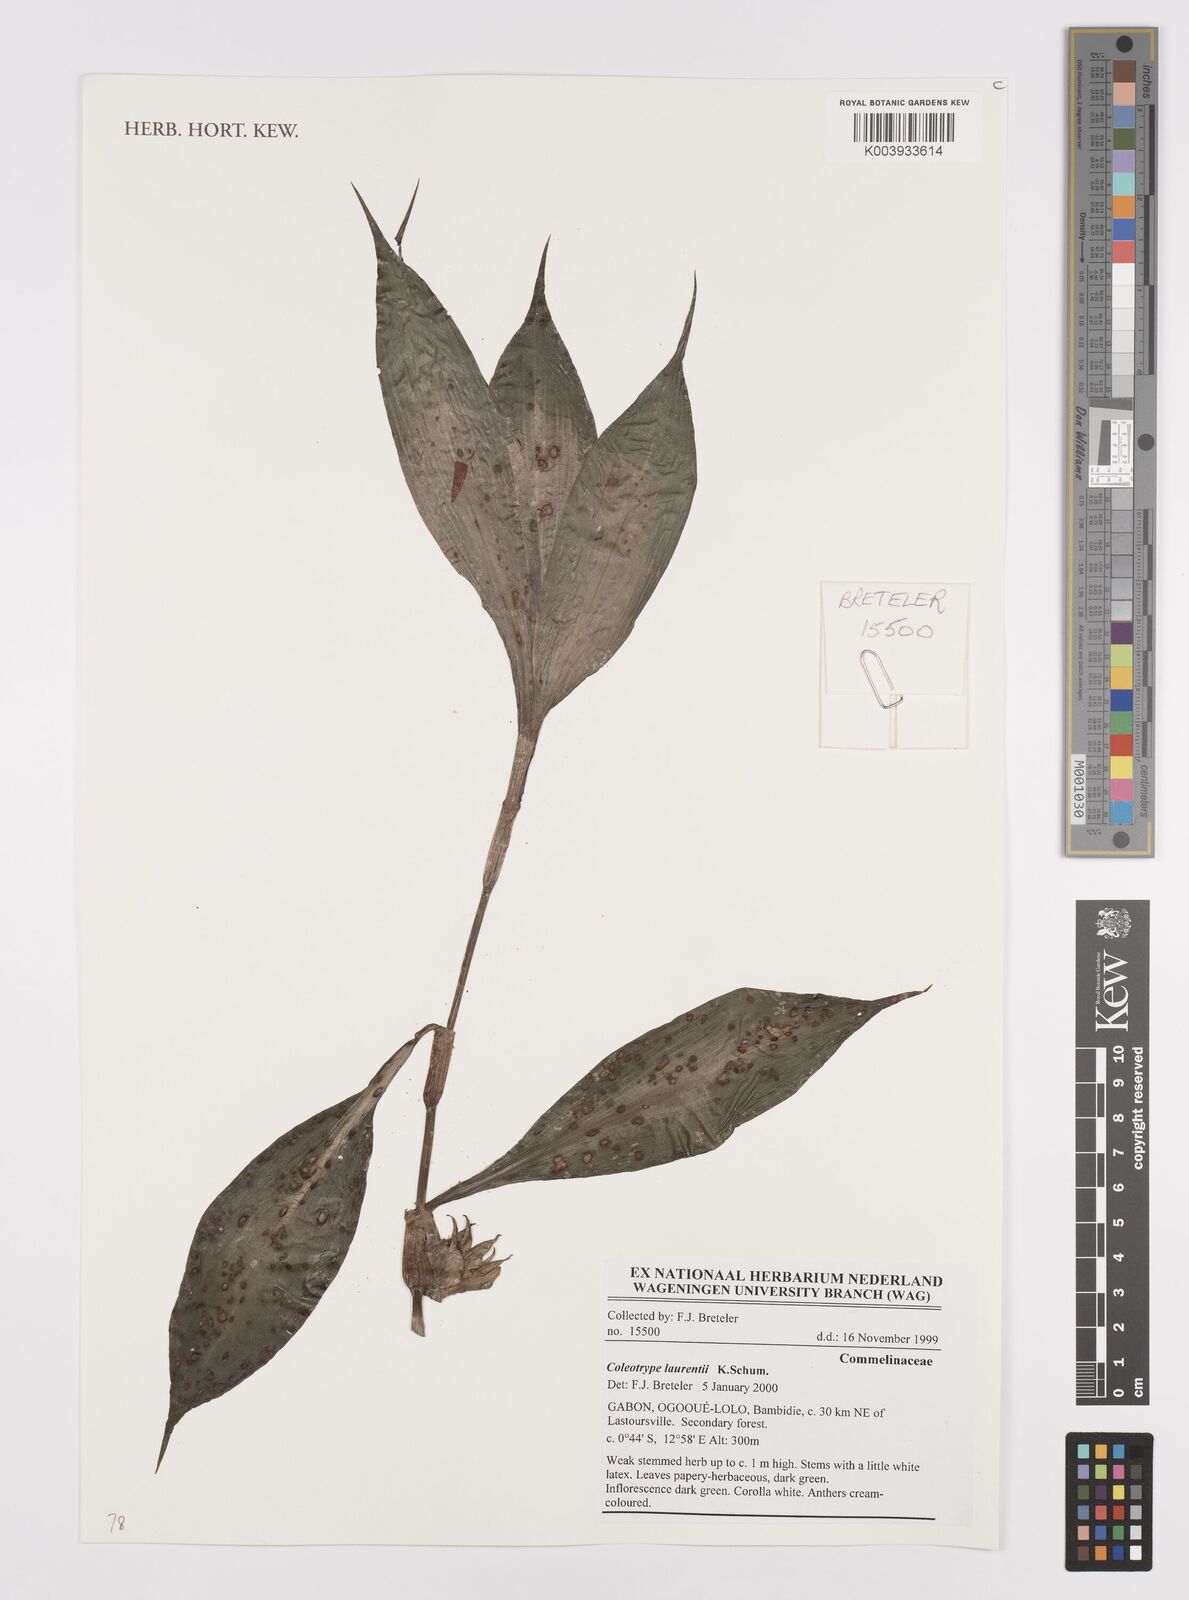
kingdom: Plantae
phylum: Tracheophyta
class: Liliopsida
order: Commelinales
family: Commelinaceae
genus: Coleotrype
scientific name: Coleotrype laurentii
